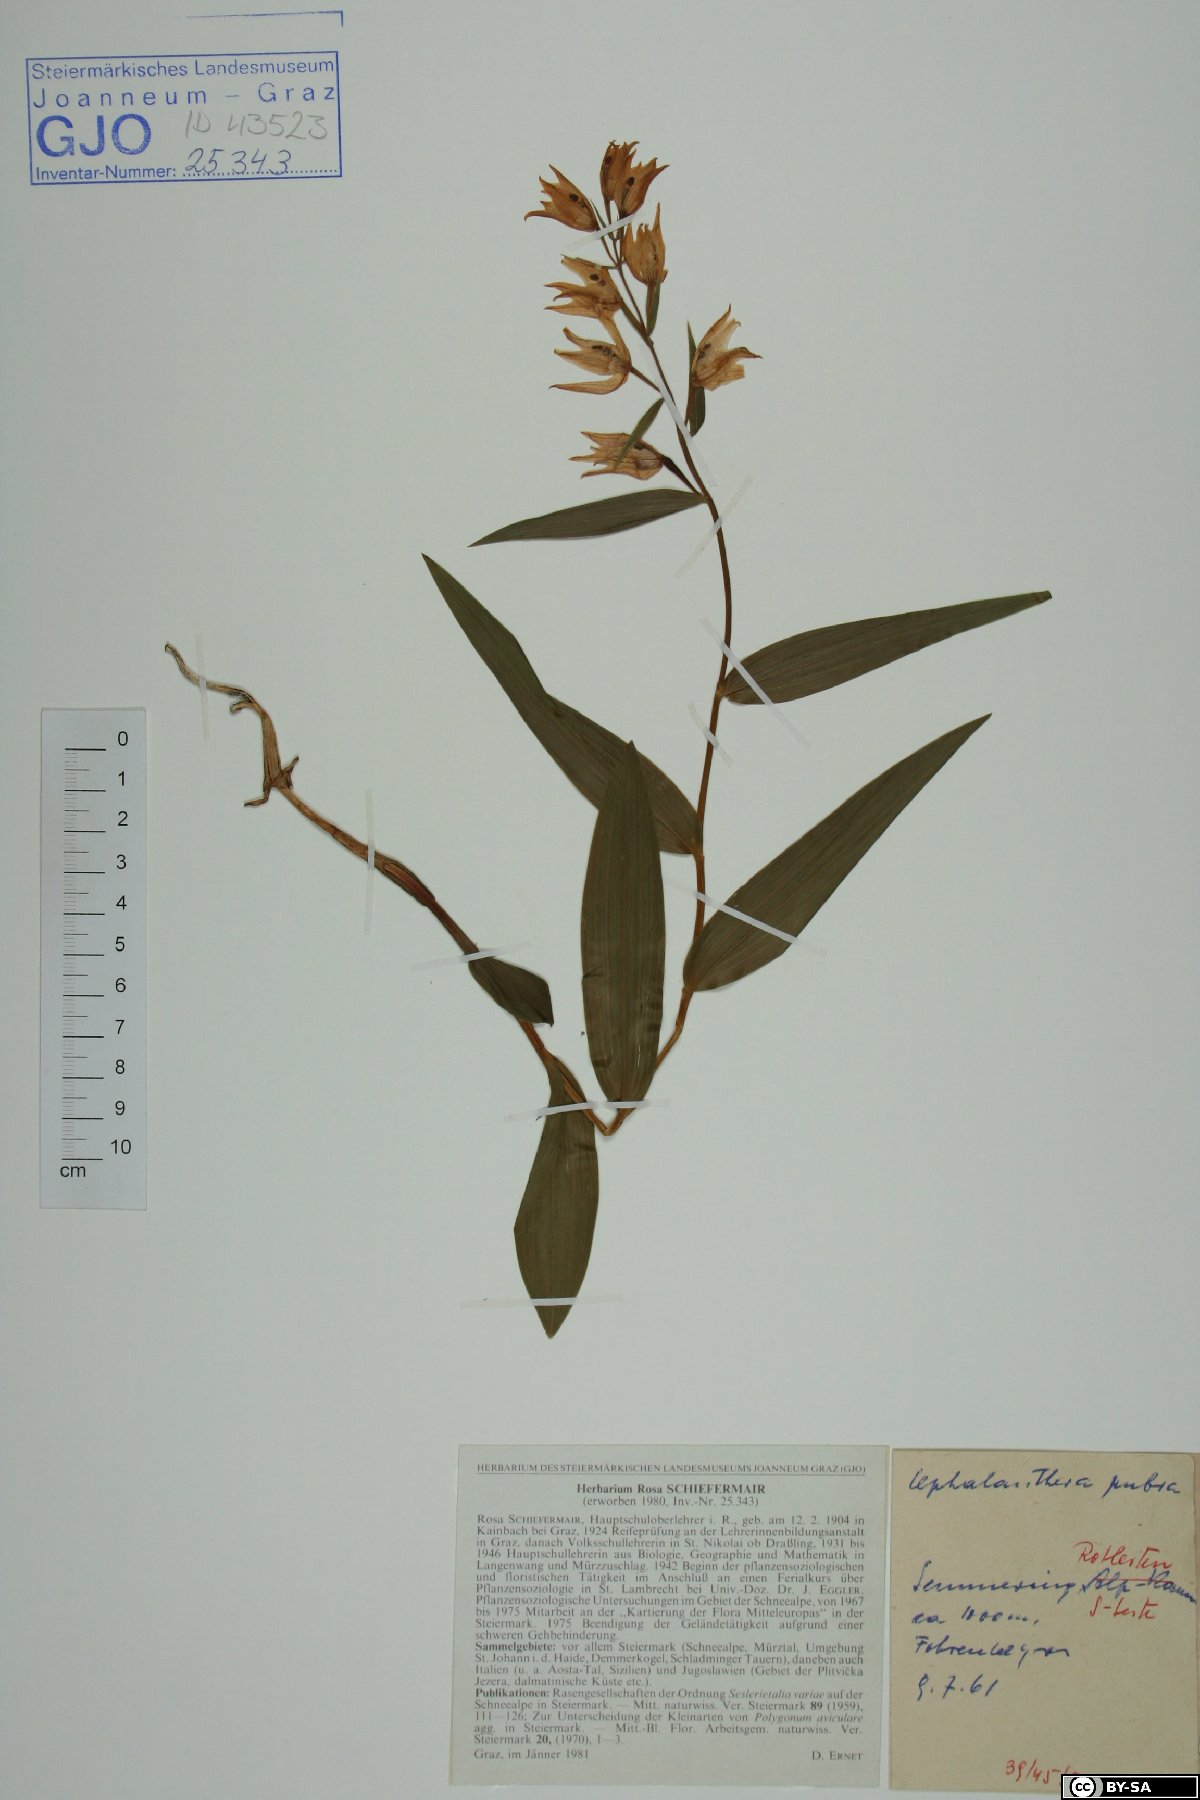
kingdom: Plantae
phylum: Tracheophyta
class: Liliopsida
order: Asparagales
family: Orchidaceae
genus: Cephalanthera
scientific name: Cephalanthera rubra
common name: Red helleborine
